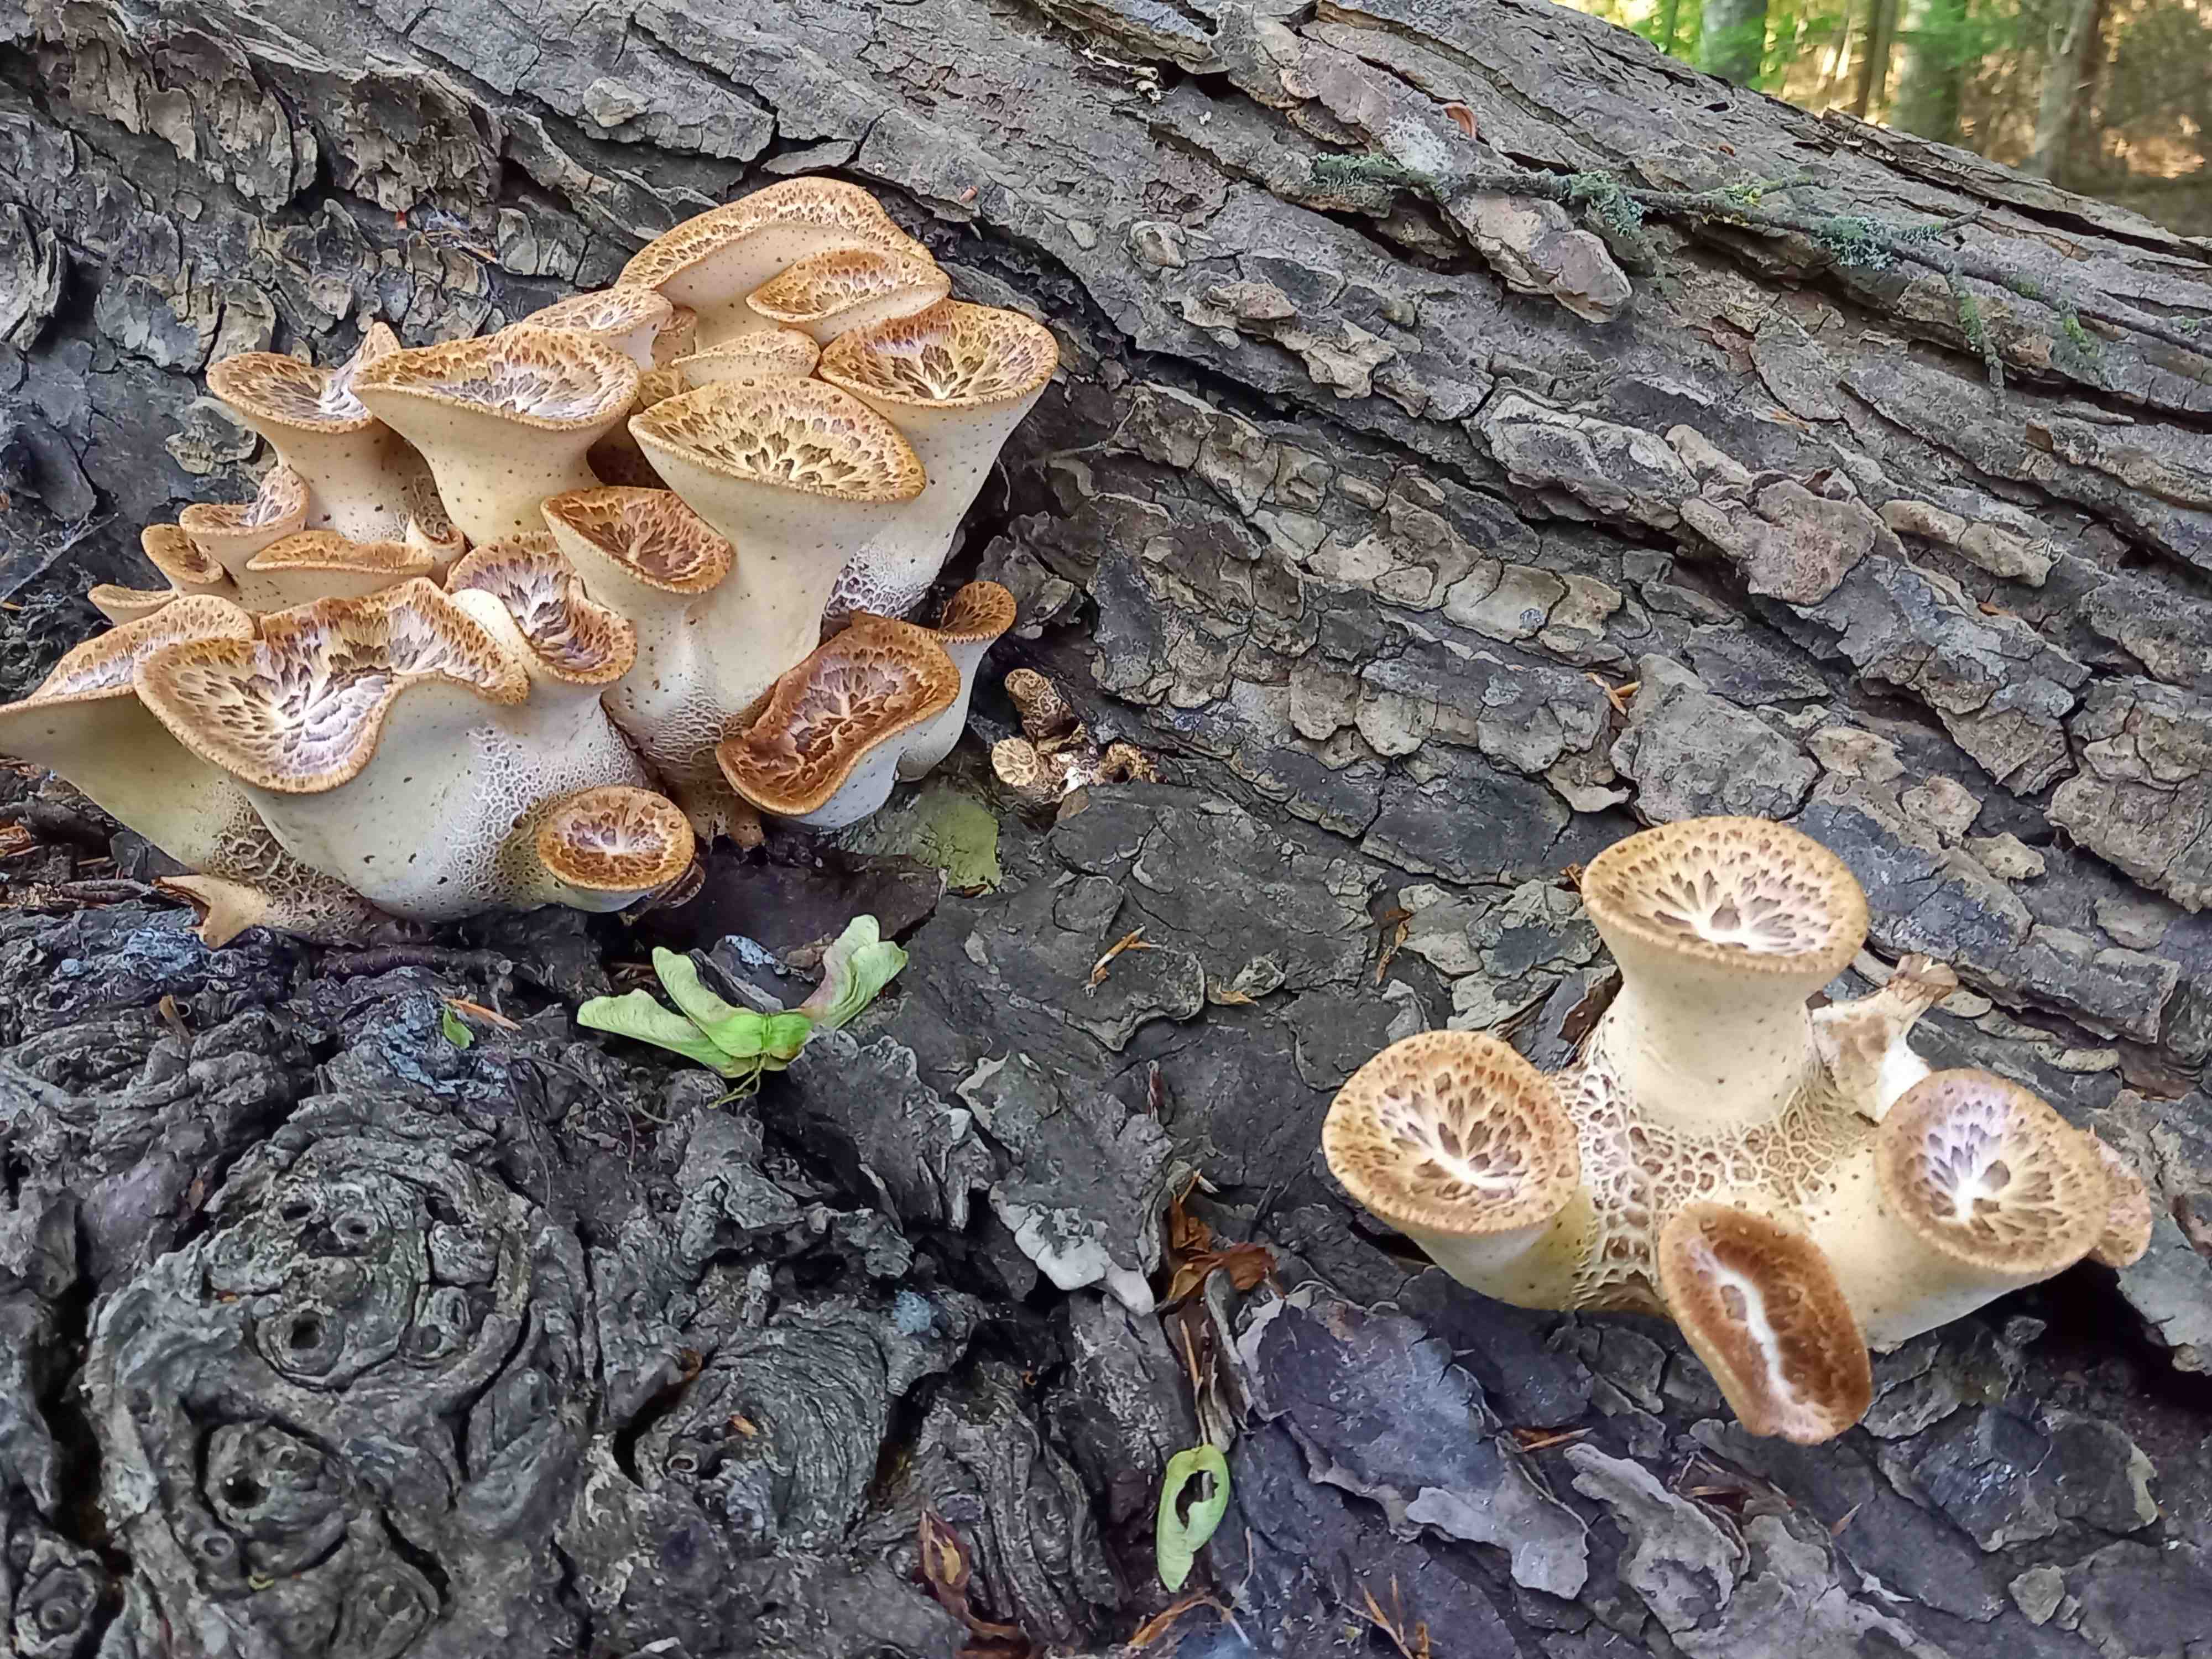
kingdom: Fungi
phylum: Basidiomycota
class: Agaricomycetes
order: Polyporales
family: Polyporaceae
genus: Cerioporus
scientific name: Cerioporus squamosus
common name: skællet stilkporesvamp
